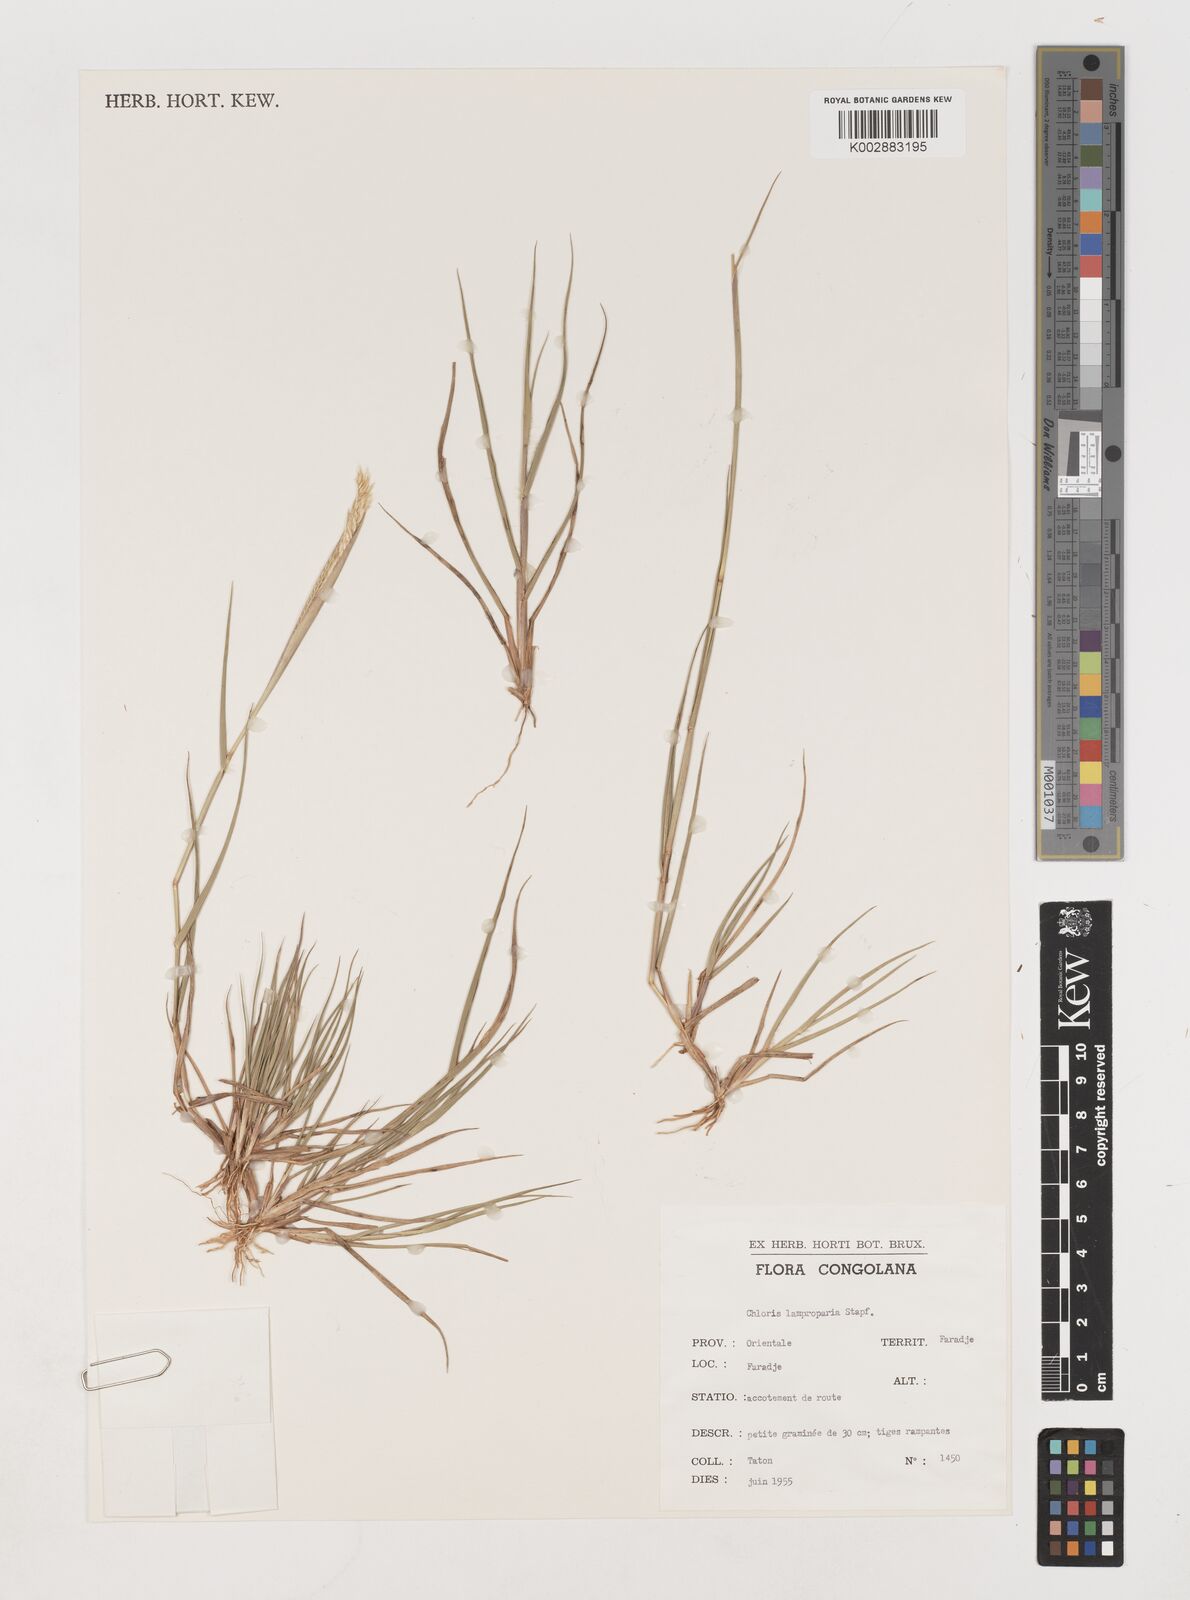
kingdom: Plantae
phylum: Tracheophyta
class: Liliopsida
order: Poales
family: Poaceae
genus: Stapfochloa
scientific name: Stapfochloa lamproparia
